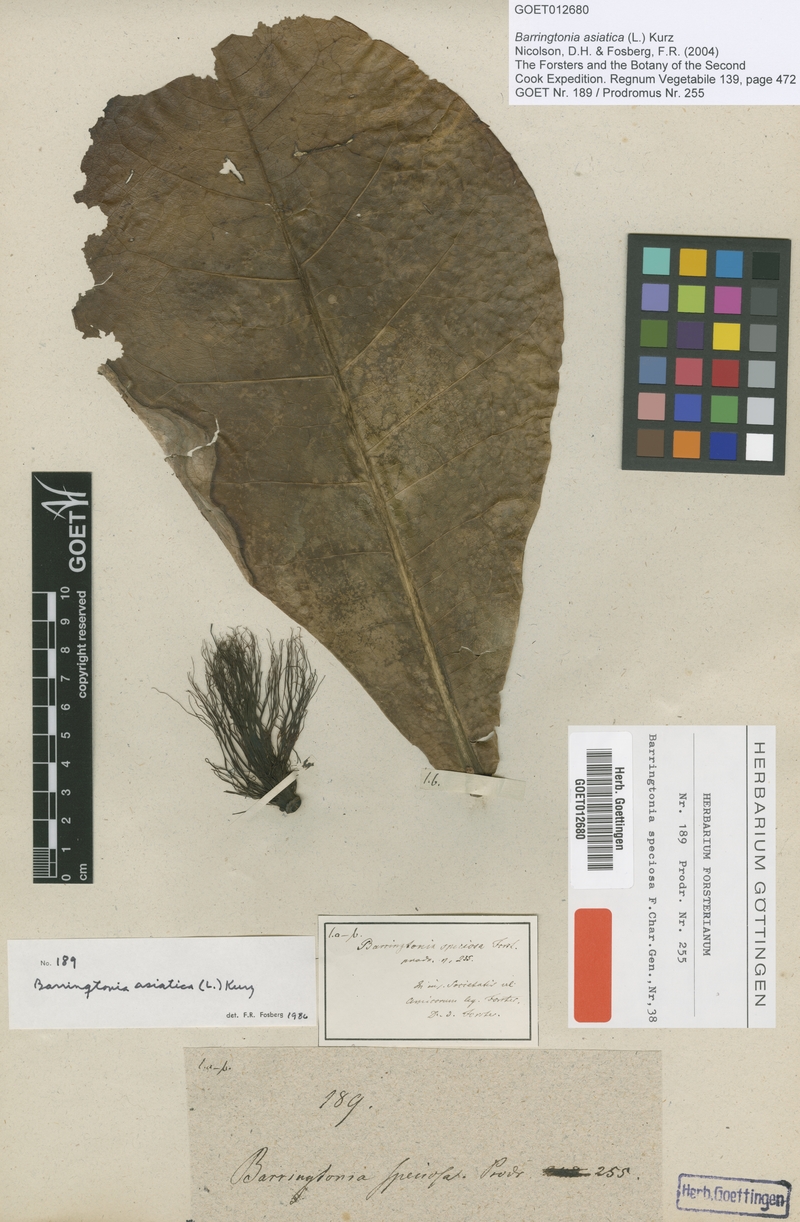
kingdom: Plantae
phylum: Tracheophyta
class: Magnoliopsida
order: Ericales
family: Lecythidaceae
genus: Barringtonia
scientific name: Barringtonia asiatica
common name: Mango-pine
